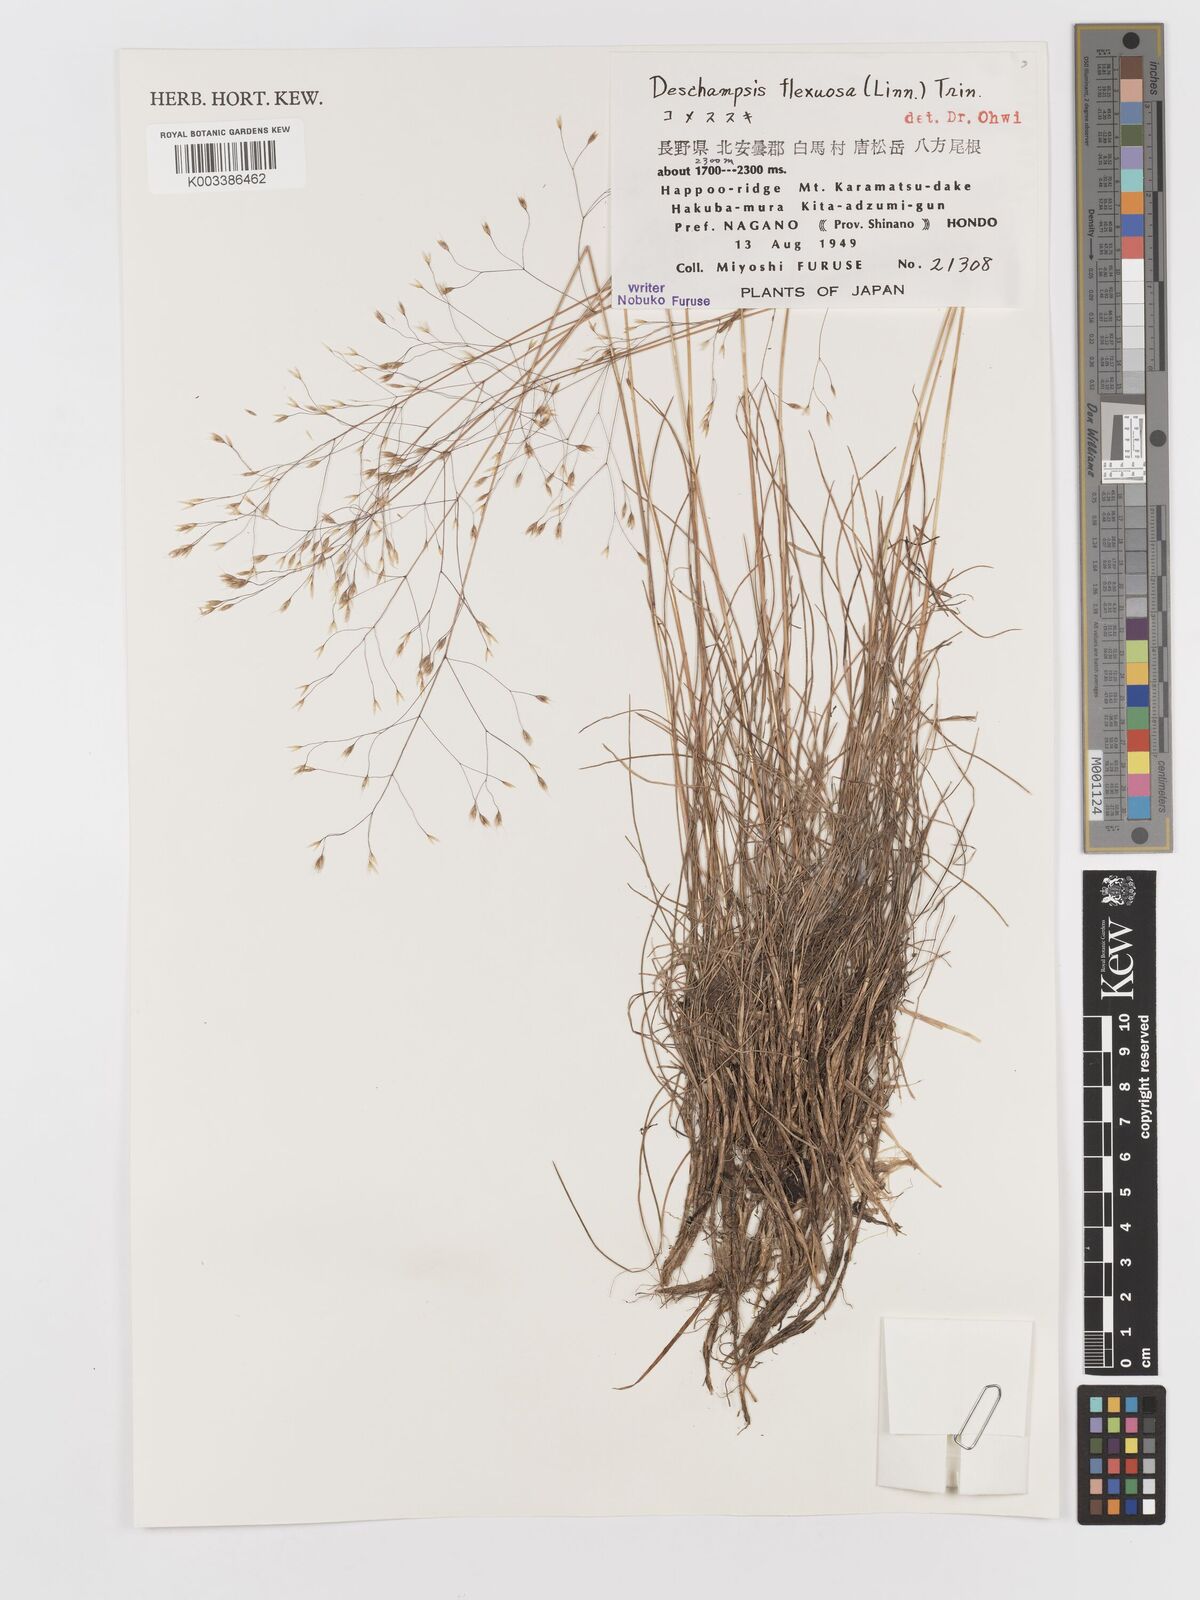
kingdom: Plantae
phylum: Tracheophyta
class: Liliopsida
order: Poales
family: Poaceae
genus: Avenella
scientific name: Avenella flexuosa
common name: Wavy hairgrass
